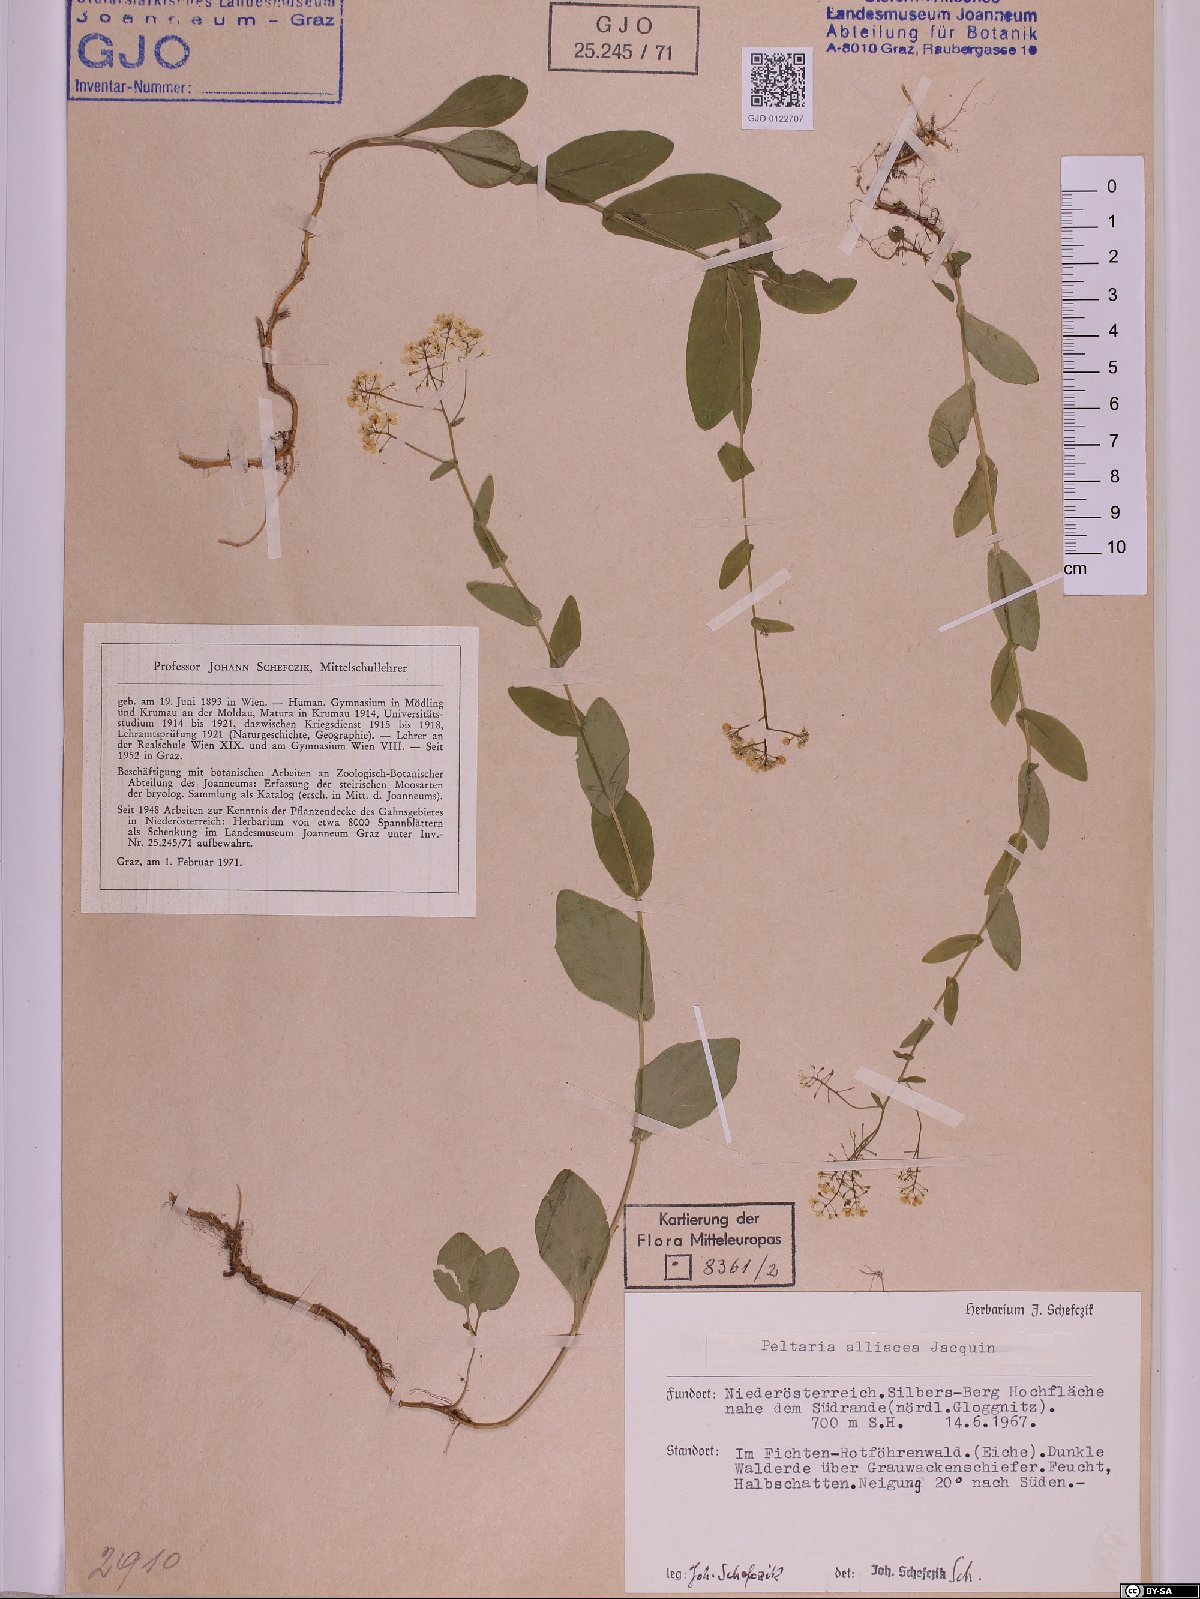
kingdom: Plantae
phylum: Tracheophyta
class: Magnoliopsida
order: Brassicales
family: Brassicaceae
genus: Peltaria
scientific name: Peltaria alliacea
